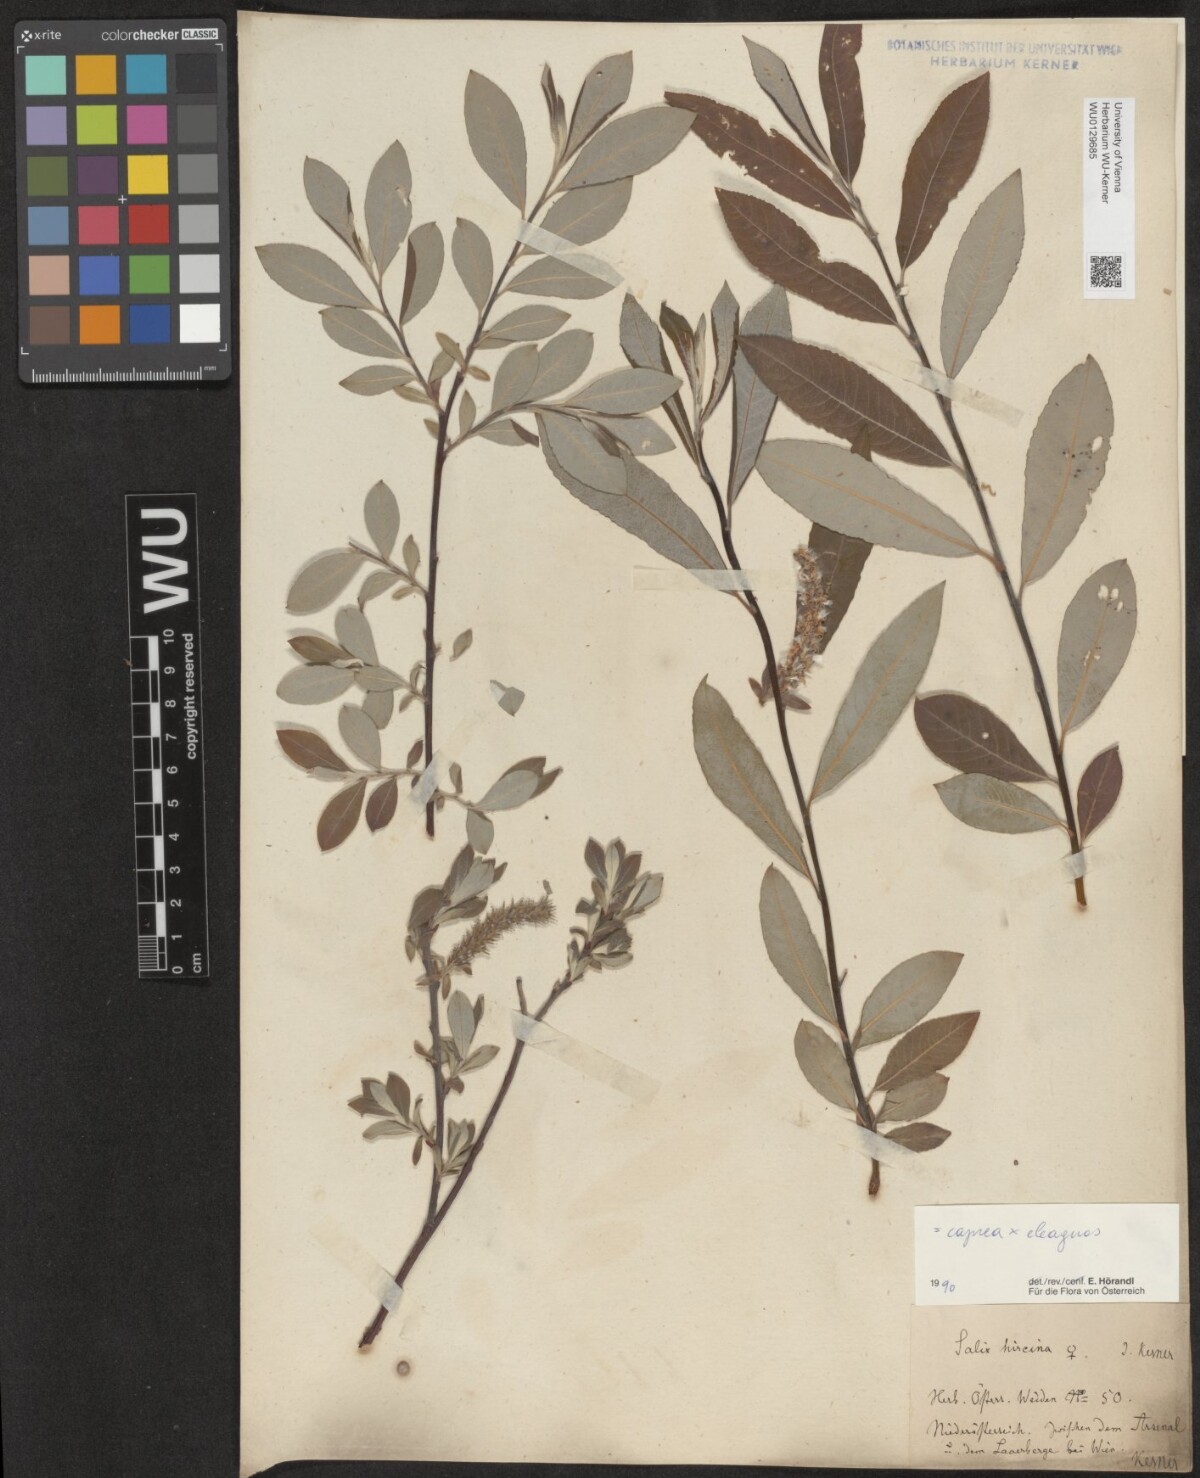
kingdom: Plantae
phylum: Tracheophyta
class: Magnoliopsida
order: Malpighiales
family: Salicaceae
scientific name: Salicaceae
